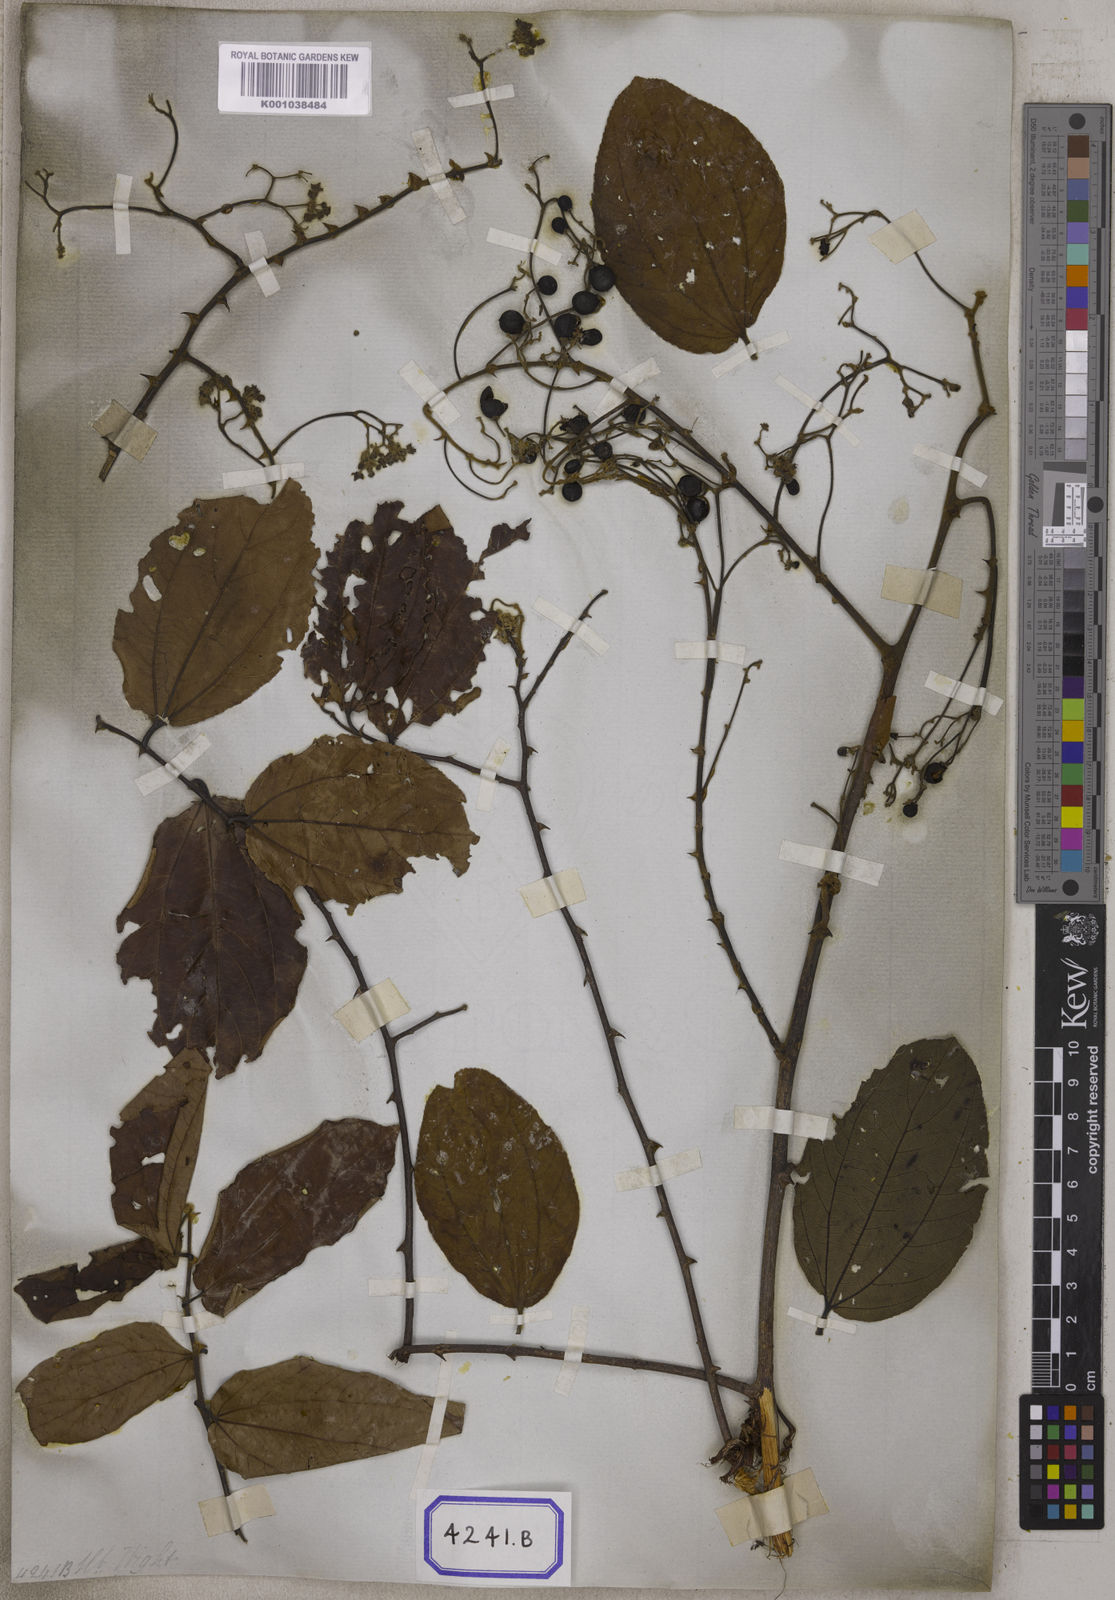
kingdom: Plantae
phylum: Tracheophyta
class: Magnoliopsida
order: Rosales
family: Rhamnaceae
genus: Ziziphus
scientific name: Ziziphus rugosa
